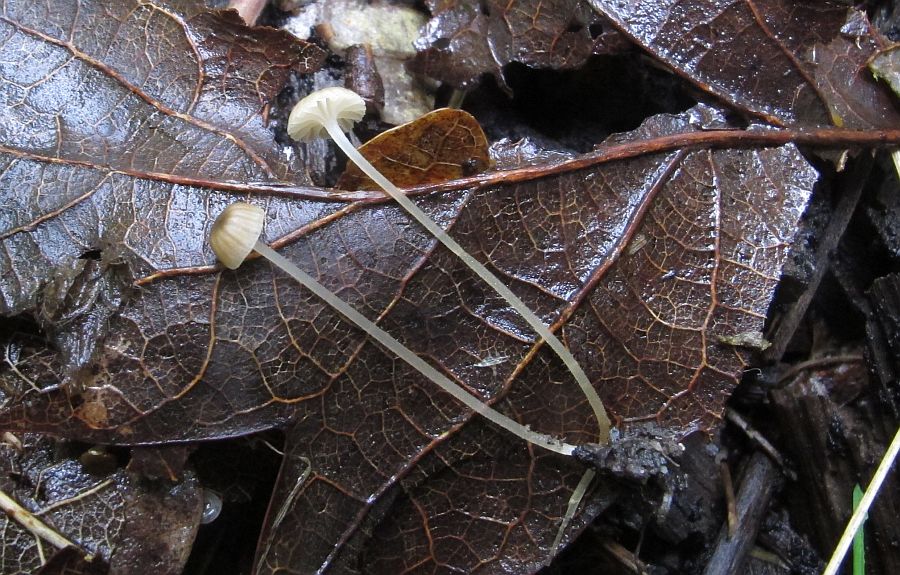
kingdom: Fungi
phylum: Basidiomycota
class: Agaricomycetes
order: Agaricales
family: Porotheleaceae
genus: Phloeomana
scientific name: Phloeomana speirea
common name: kvist-huesvamp
